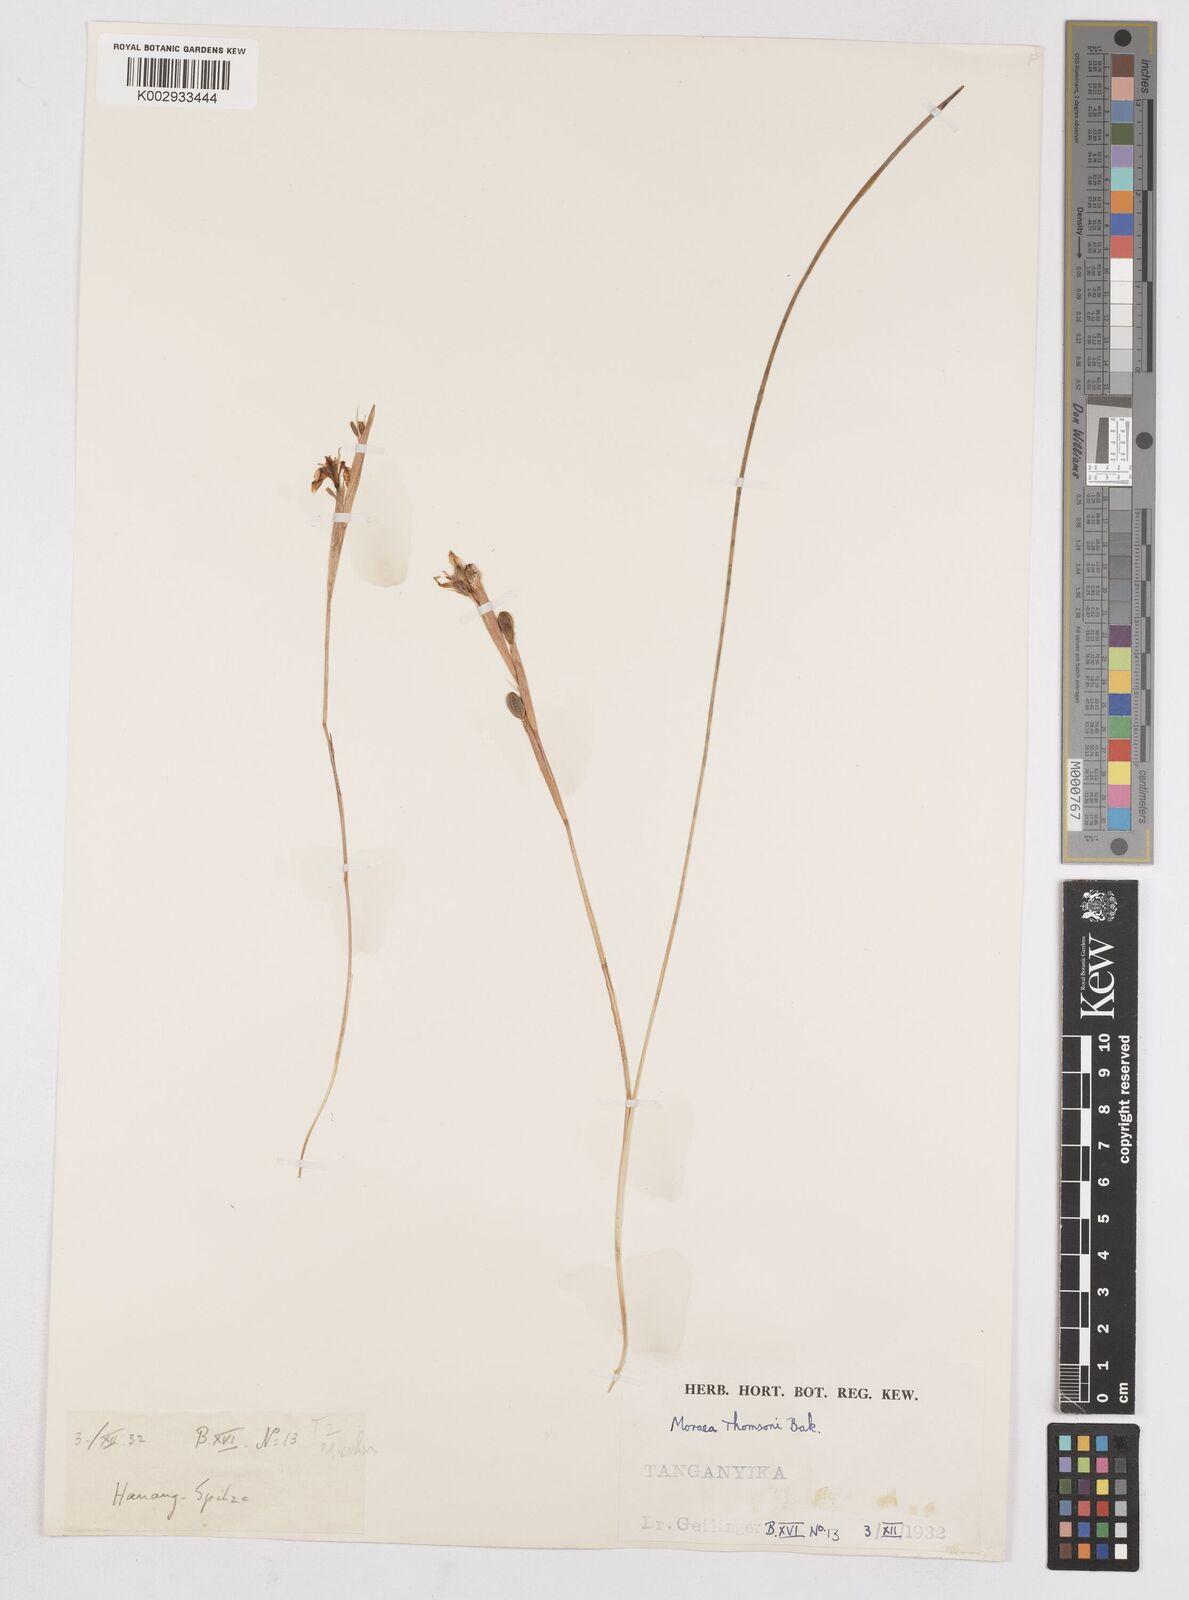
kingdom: Plantae
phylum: Tracheophyta
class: Liliopsida
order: Asparagales
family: Iridaceae
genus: Moraea
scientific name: Moraea stricta
